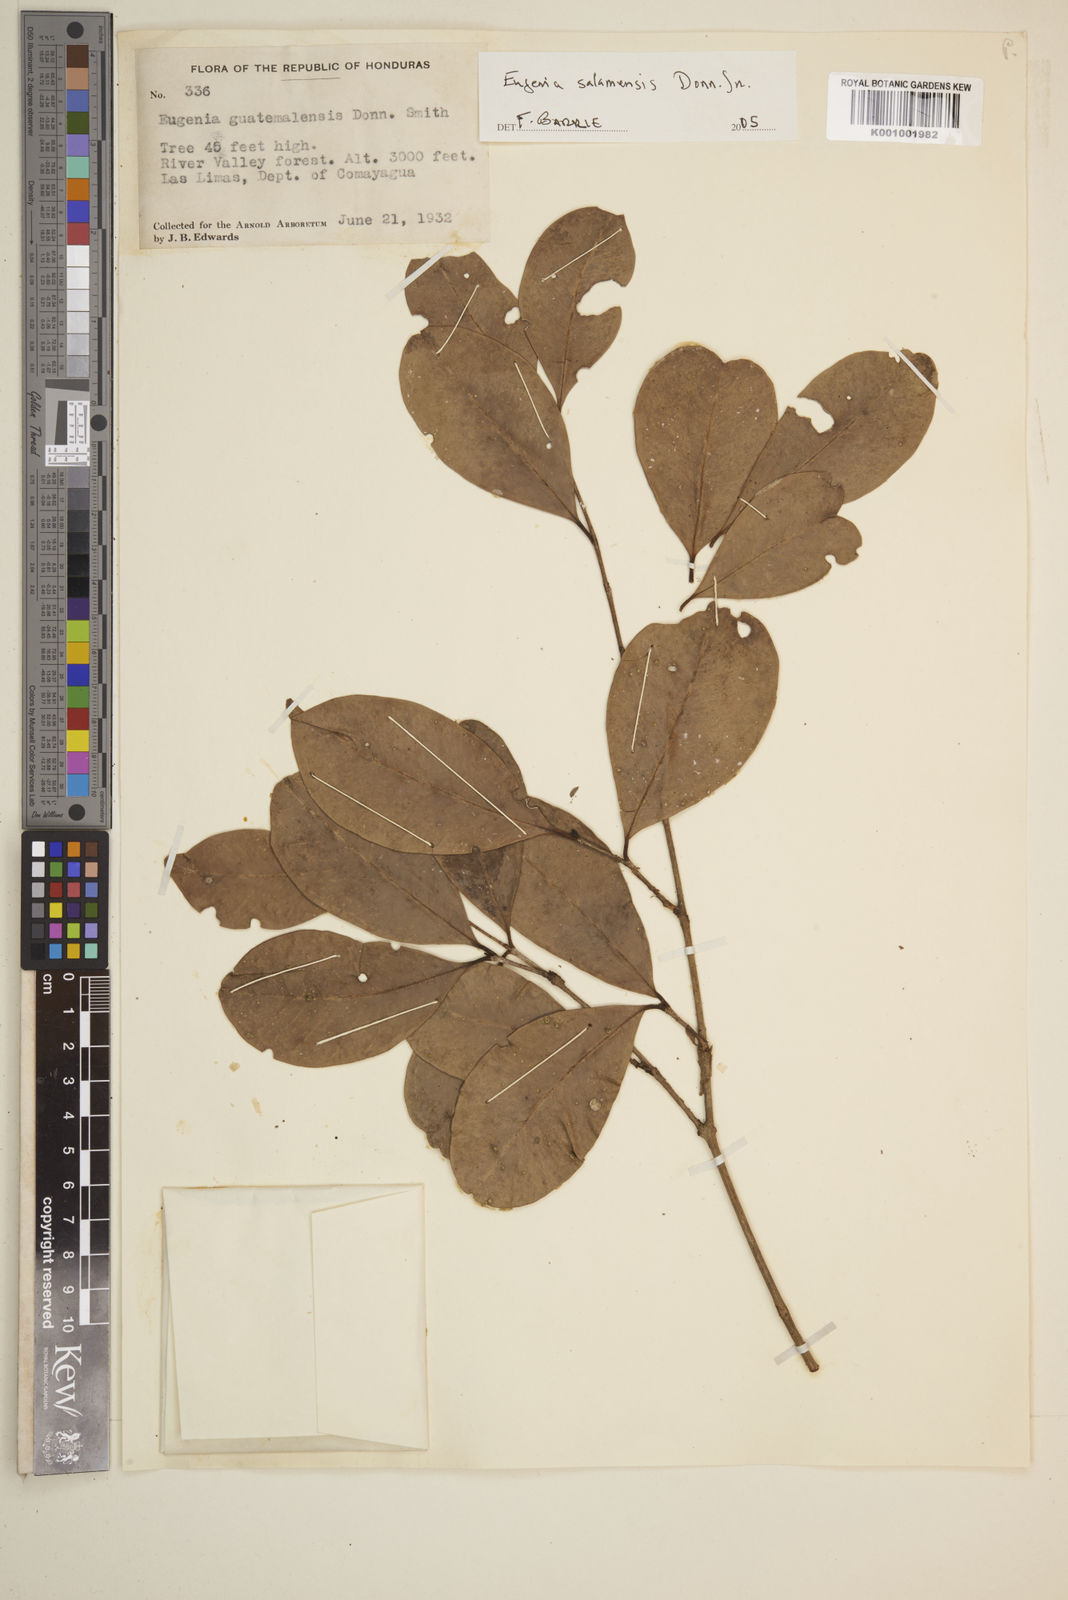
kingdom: Plantae
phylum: Tracheophyta
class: Magnoliopsida
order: Myrtales
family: Myrtaceae
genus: Eugenia
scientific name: Eugenia salamensis
